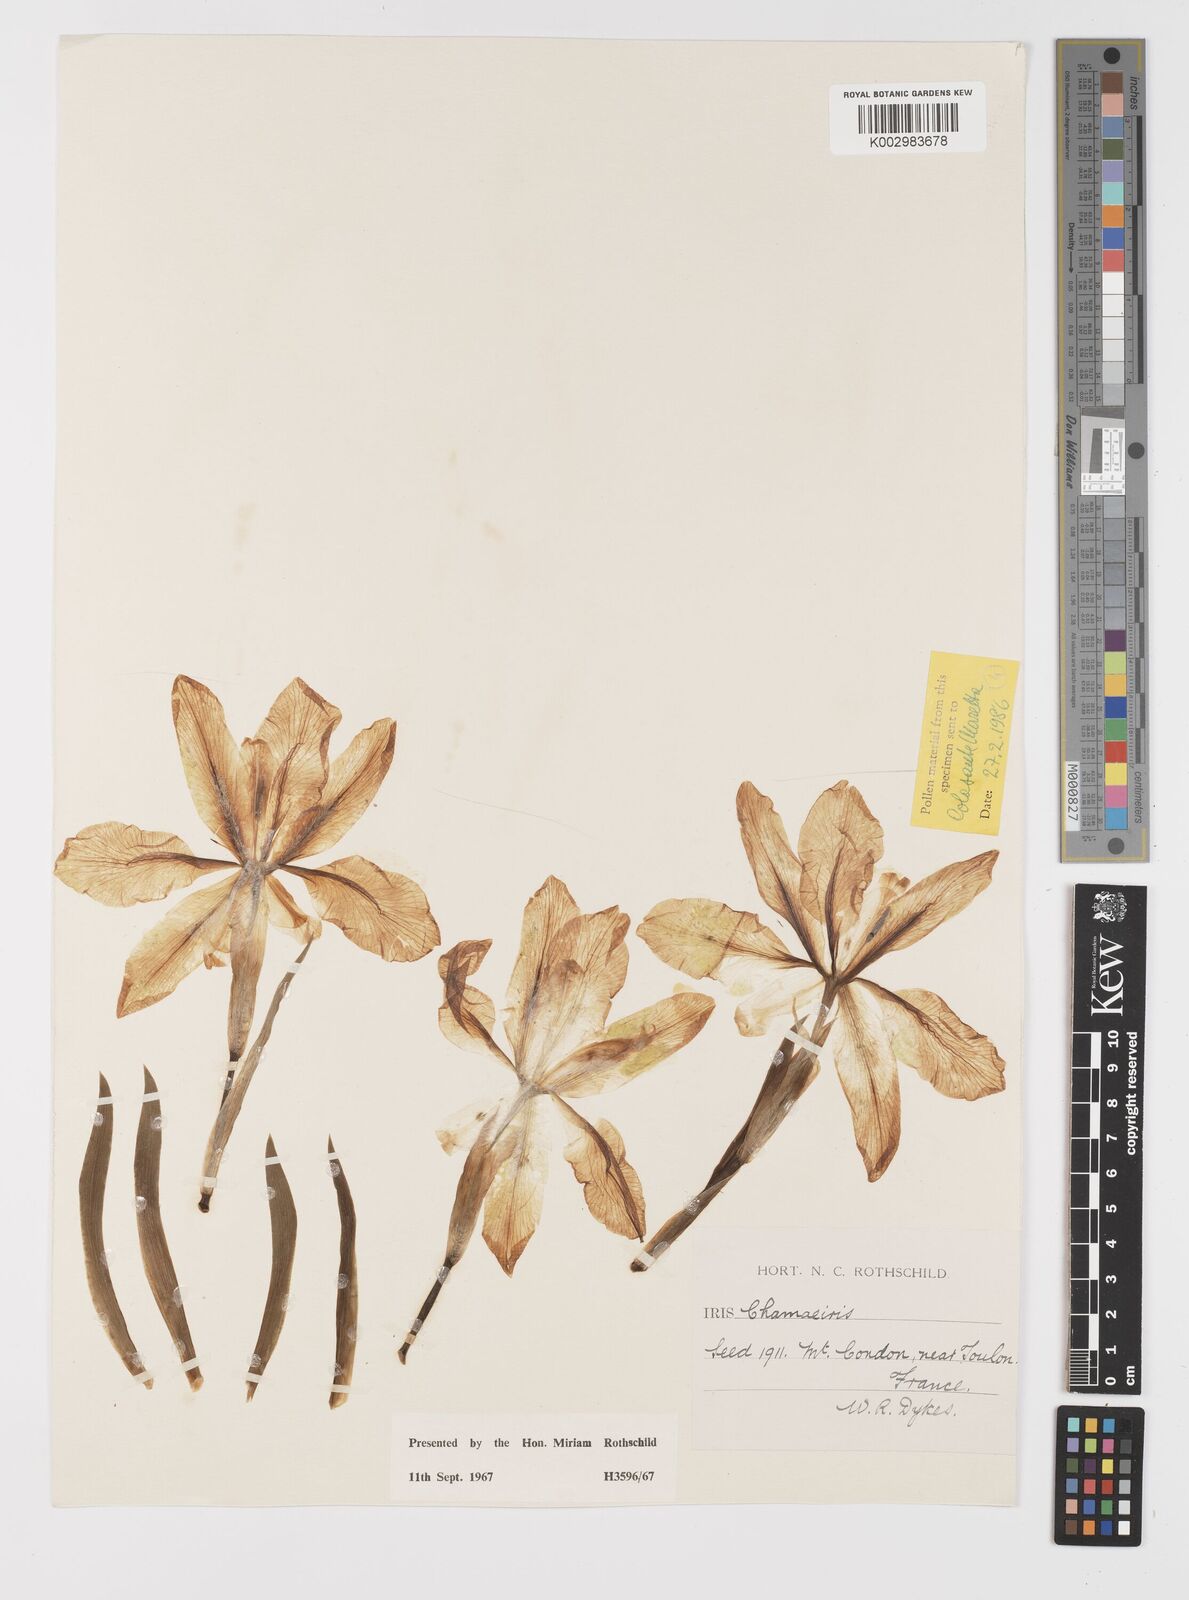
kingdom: Plantae
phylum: Tracheophyta
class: Liliopsida
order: Asparagales
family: Iridaceae
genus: Iris
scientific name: Iris lutescens
